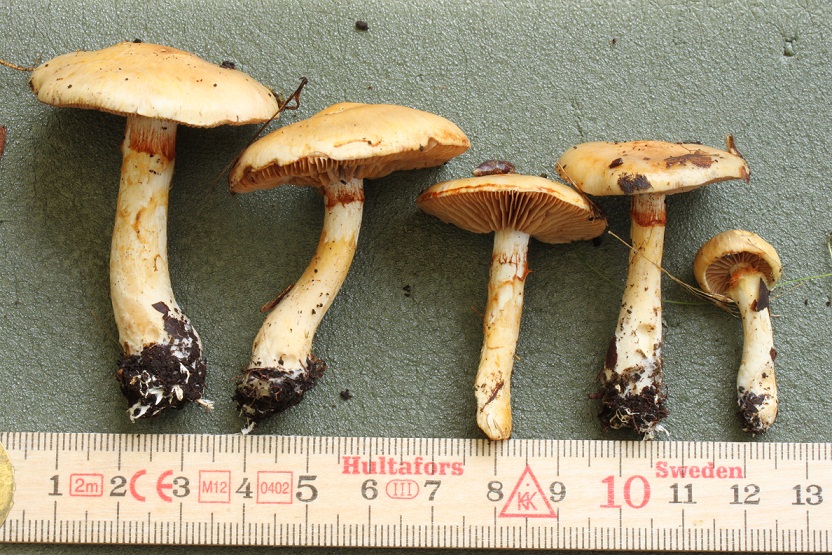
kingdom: Fungi
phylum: Basidiomycota
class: Agaricomycetes
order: Agaricales
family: Cortinariaceae
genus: Cortinarius
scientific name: Cortinarius delibutus
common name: gul slørhat
